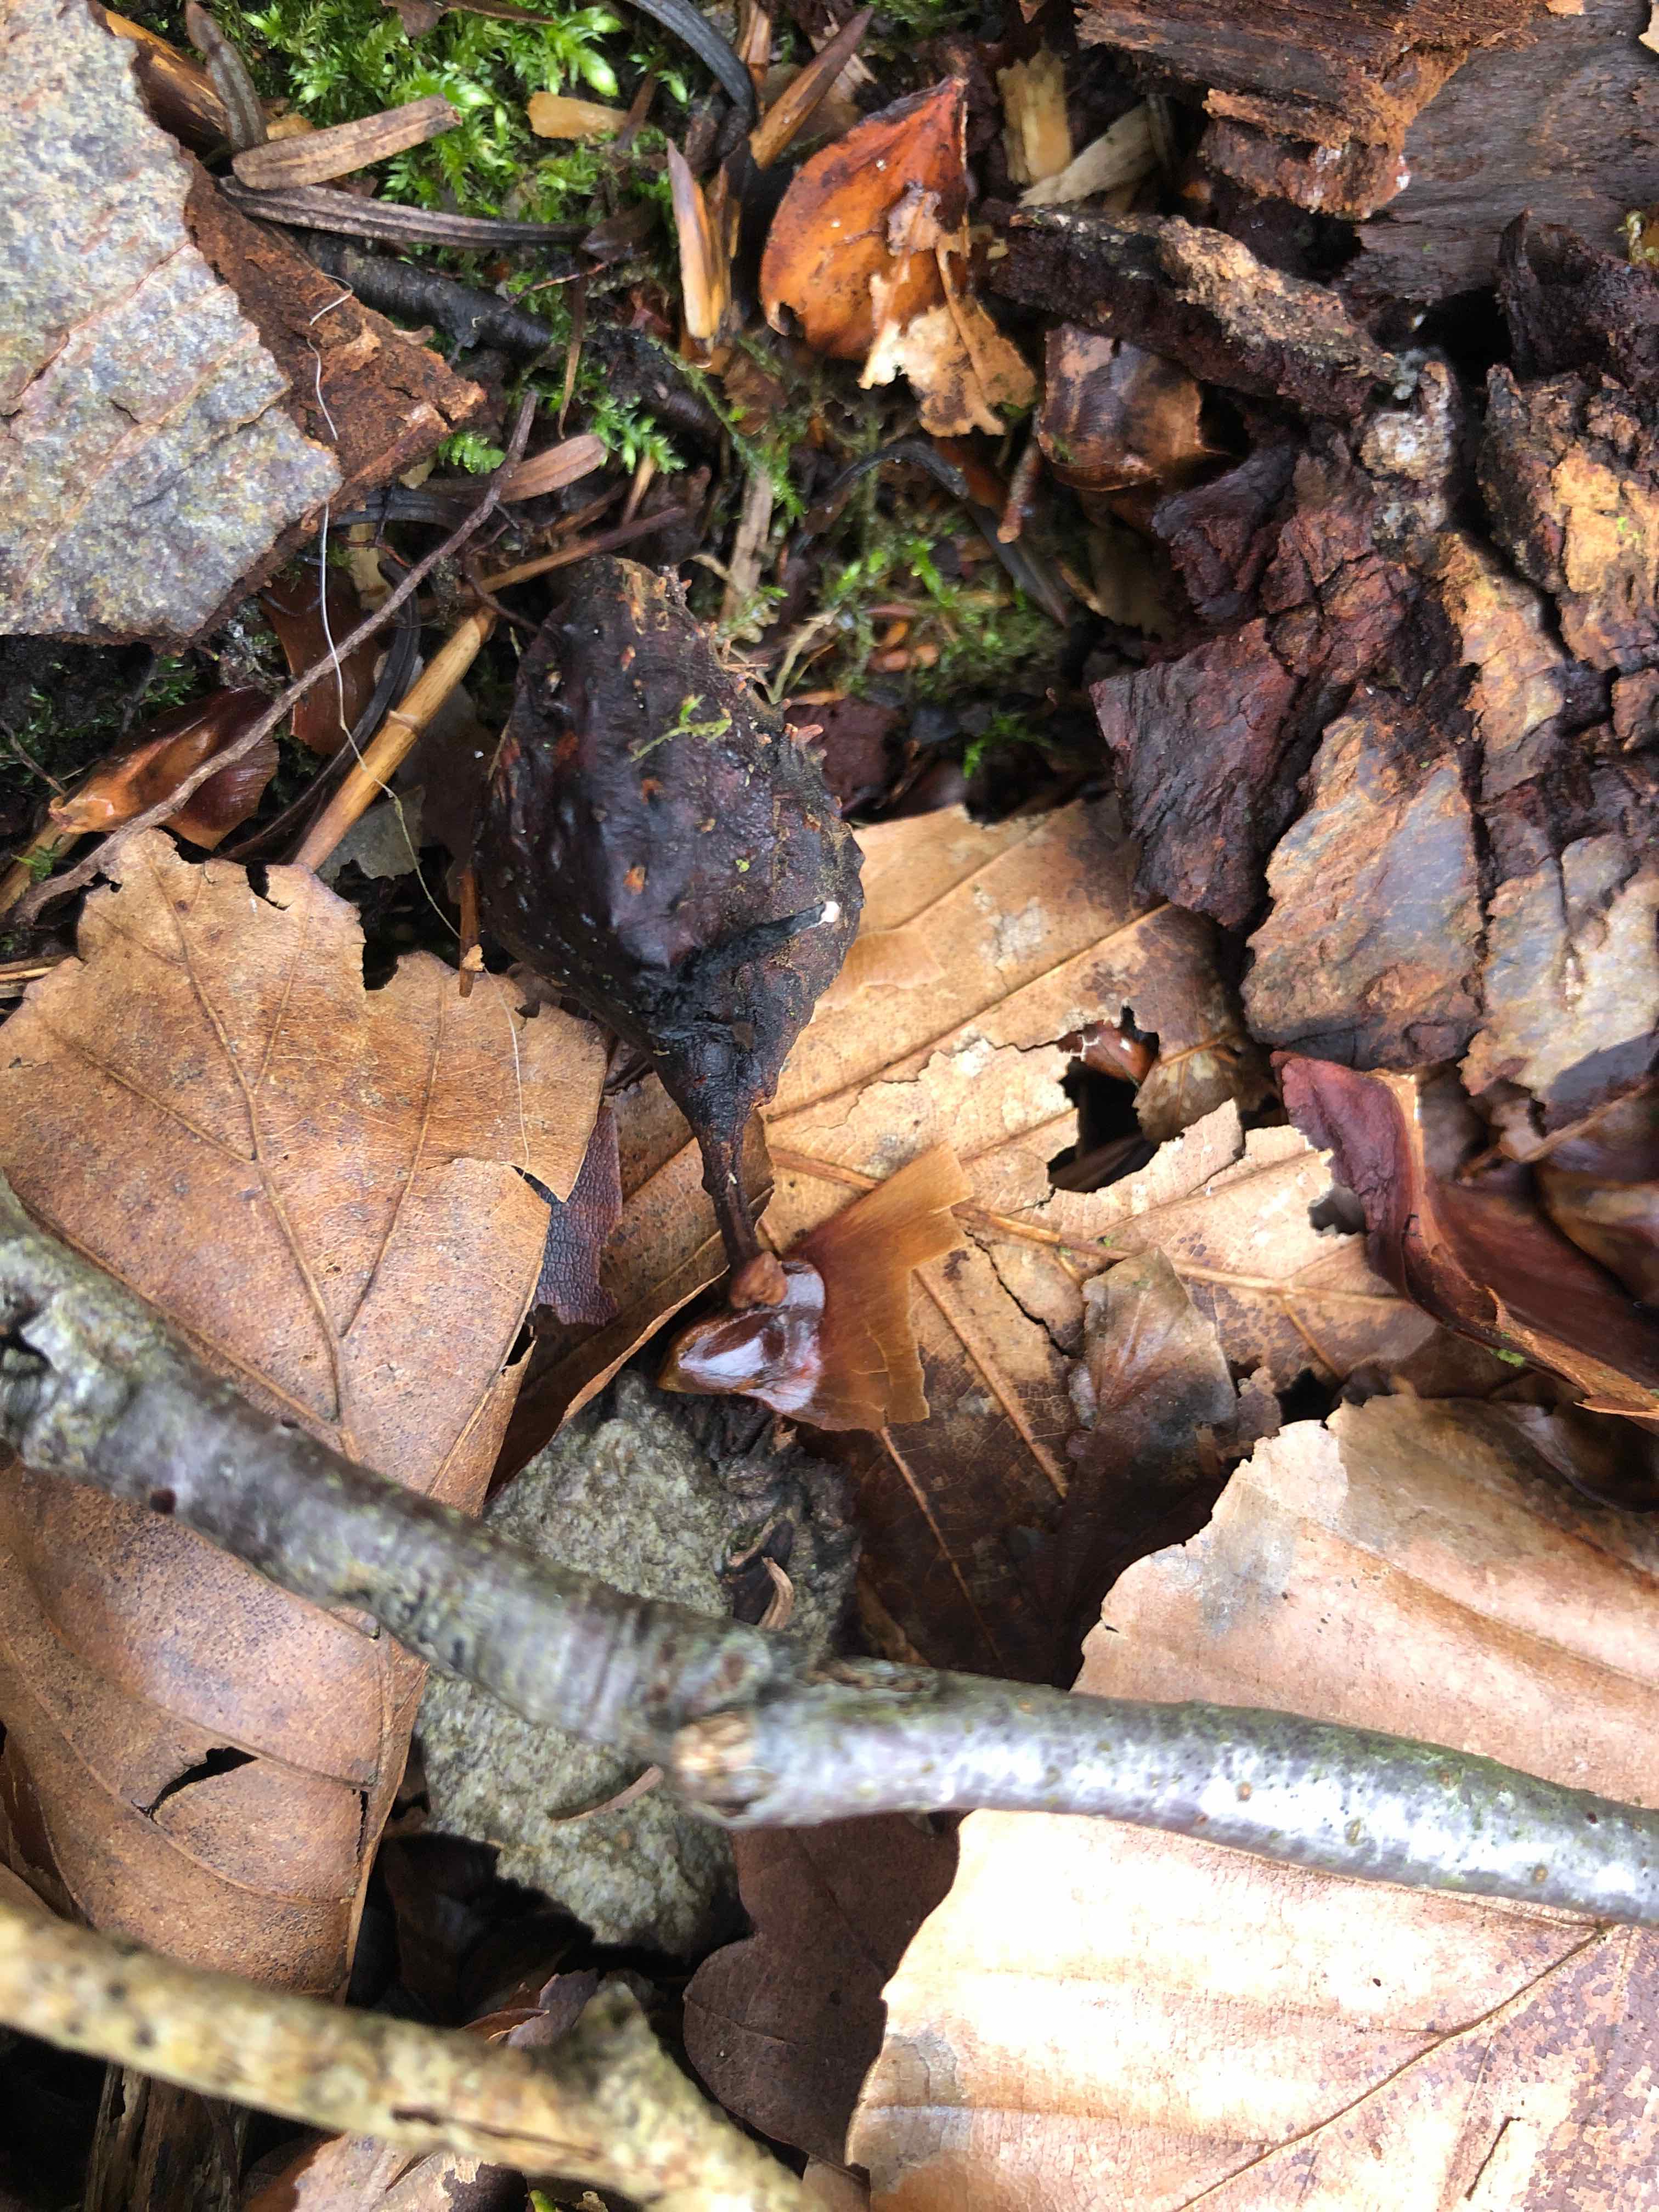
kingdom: Fungi
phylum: Ascomycota
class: Sordariomycetes
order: Xylariales
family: Xylariaceae
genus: Xylaria
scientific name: Xylaria carpophila
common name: bogskål-stødsvamp
